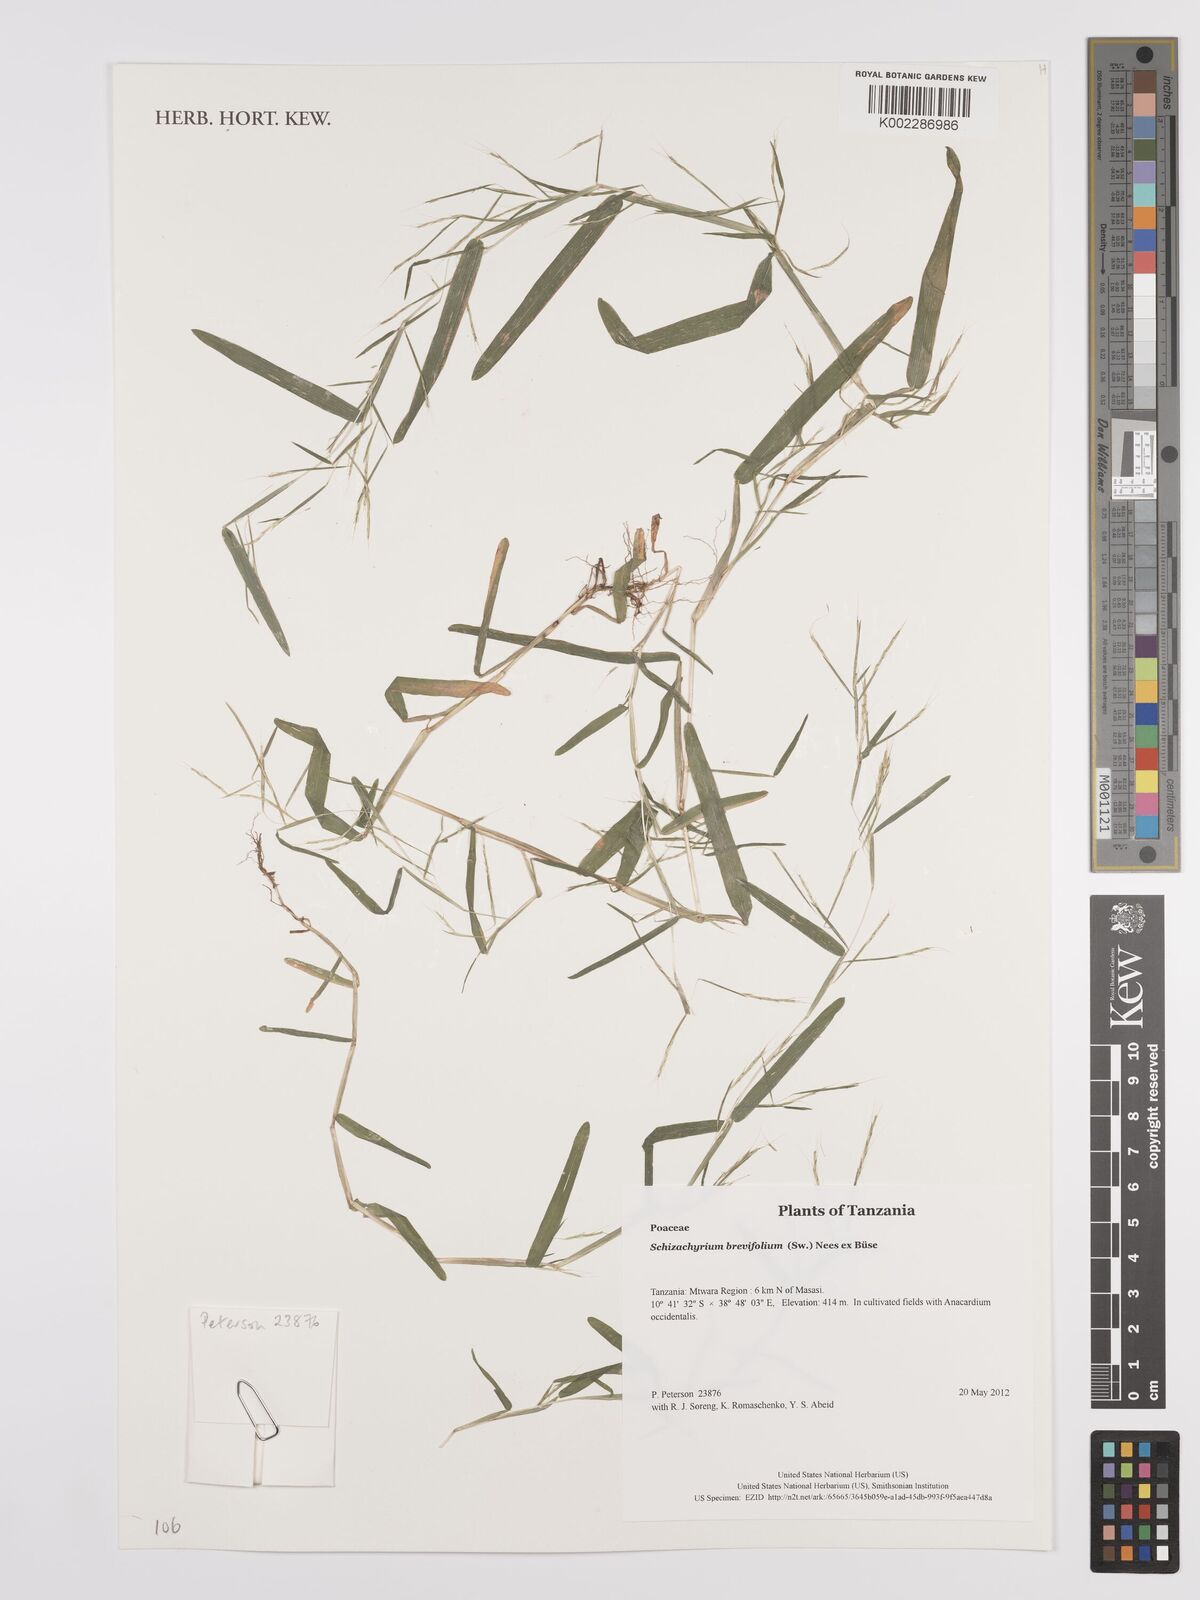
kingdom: Plantae
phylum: Tracheophyta
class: Liliopsida
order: Poales
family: Poaceae
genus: Schizachyrium
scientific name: Schizachyrium brevifolium
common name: Serillo dulce
